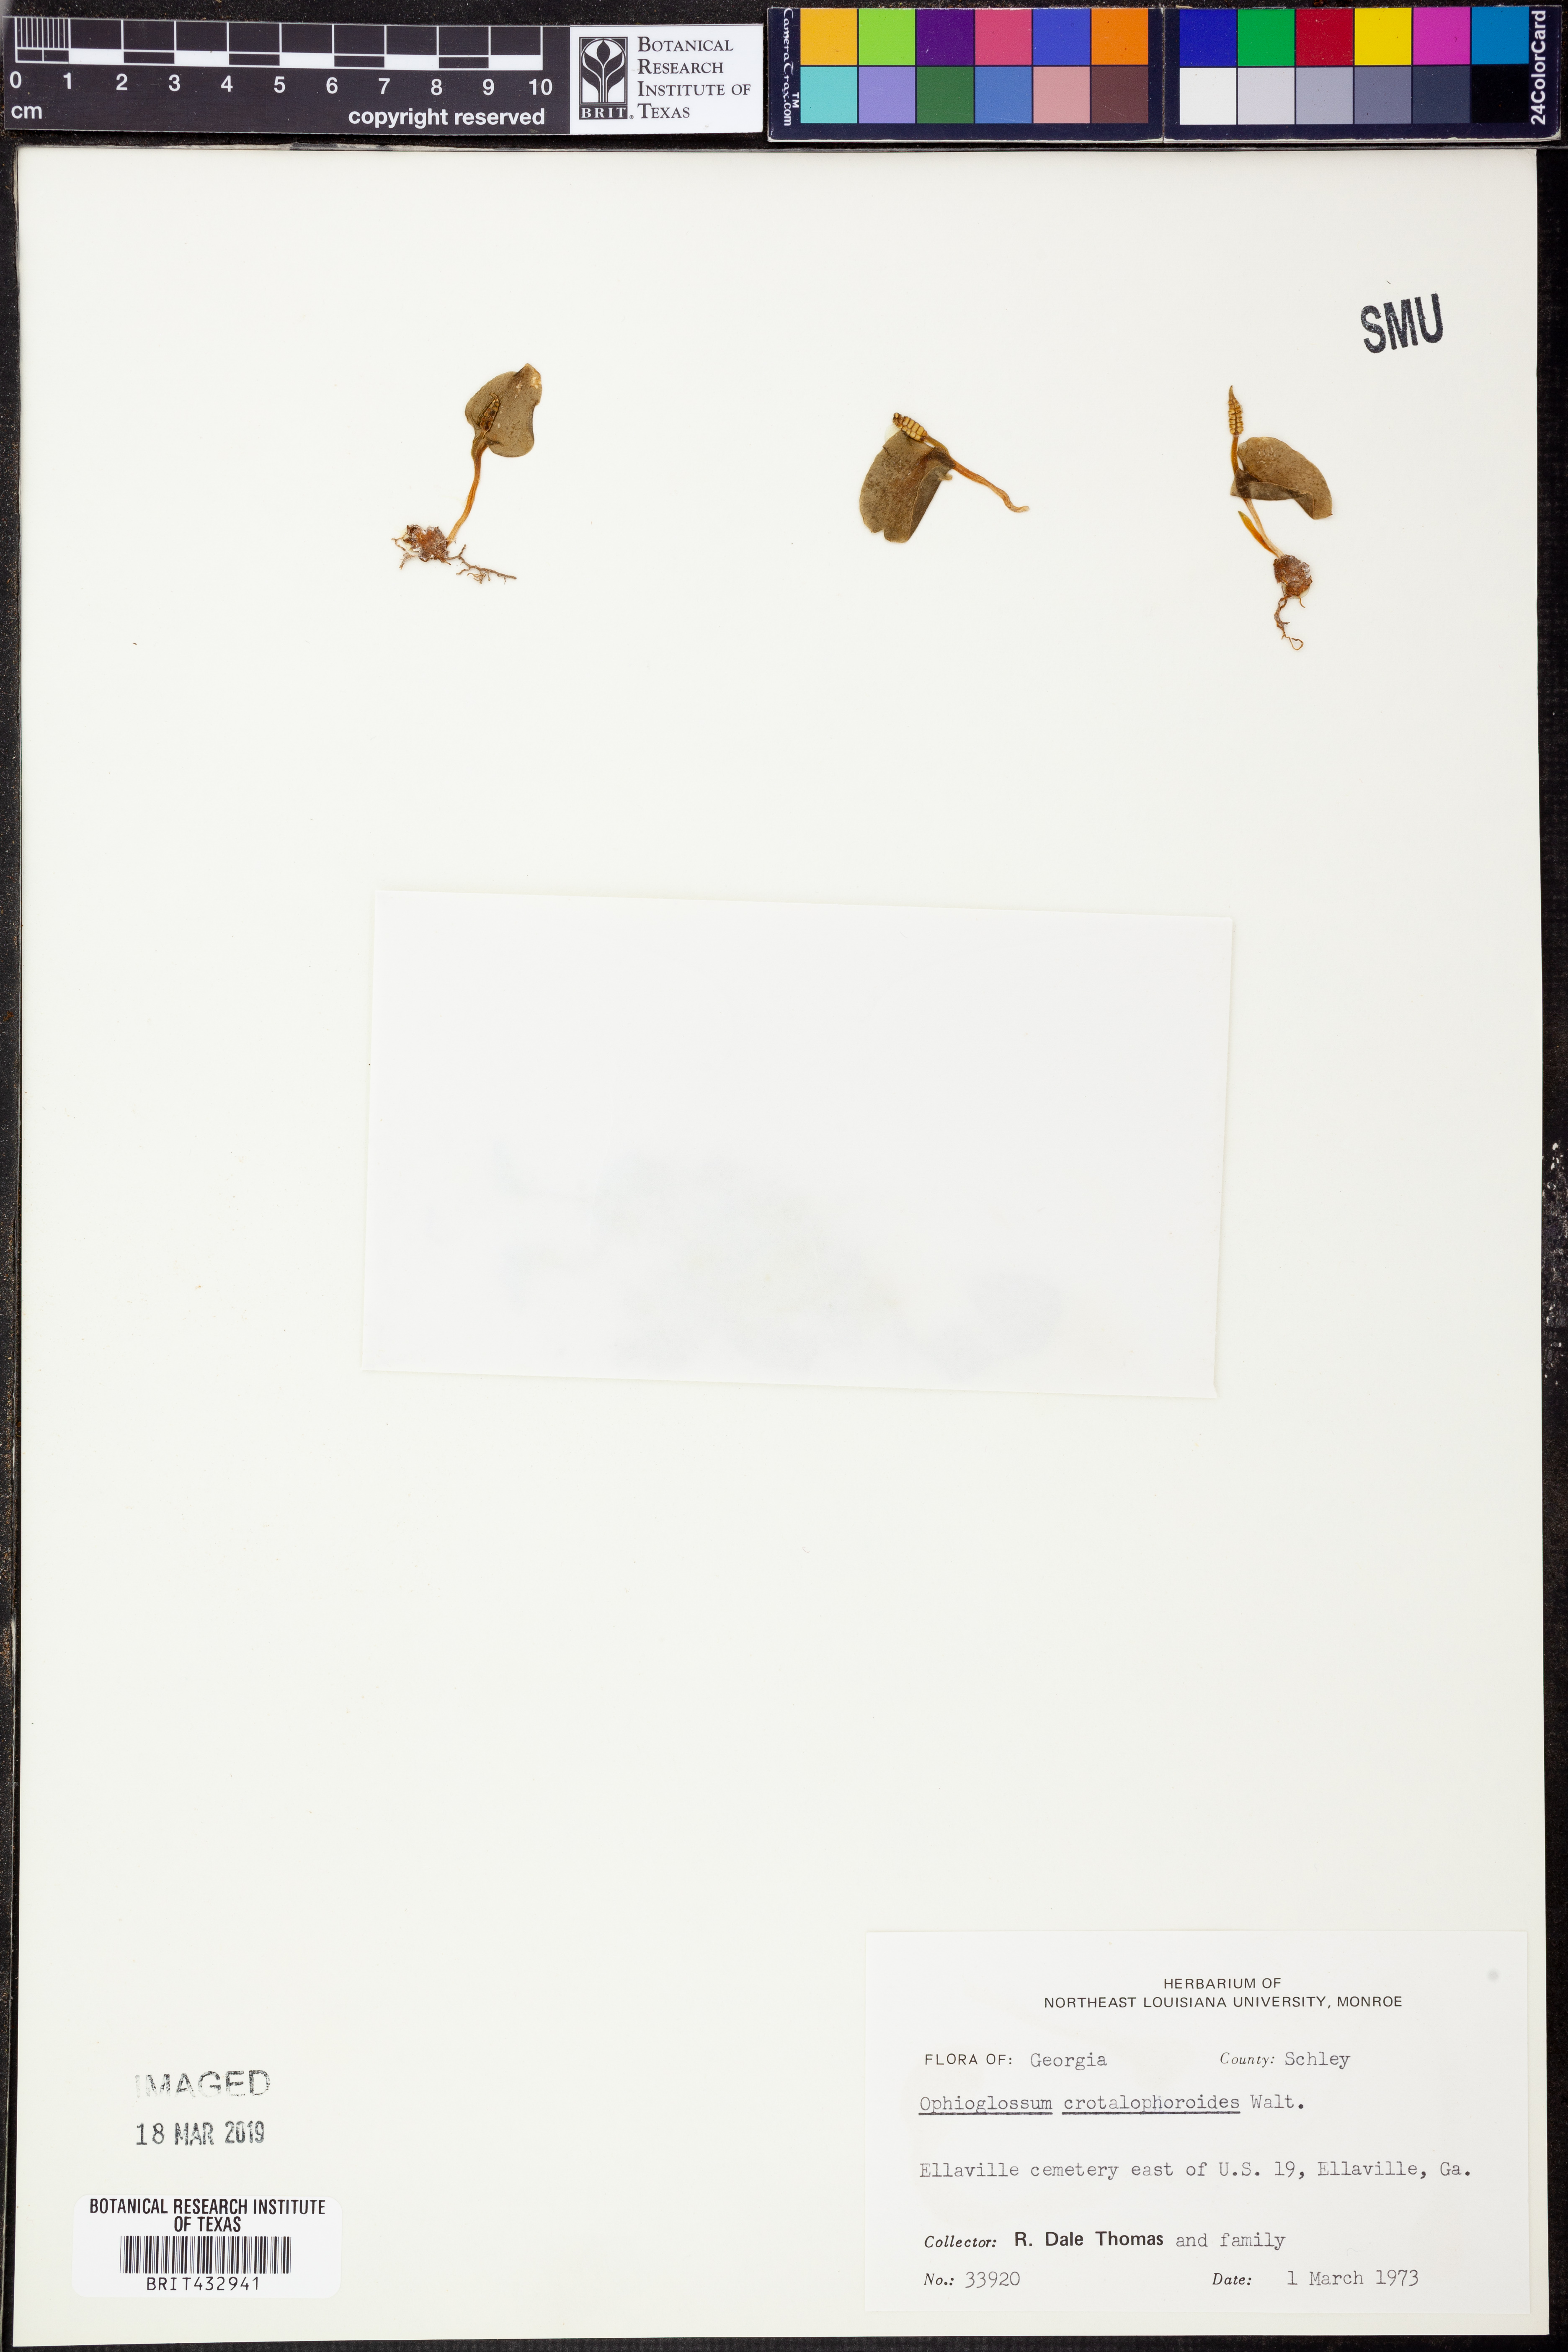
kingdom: Plantae
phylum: Tracheophyta
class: Polypodiopsida
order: Ophioglossales
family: Ophioglossaceae
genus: Ophioglossum
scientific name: Ophioglossum crotalophoroides
